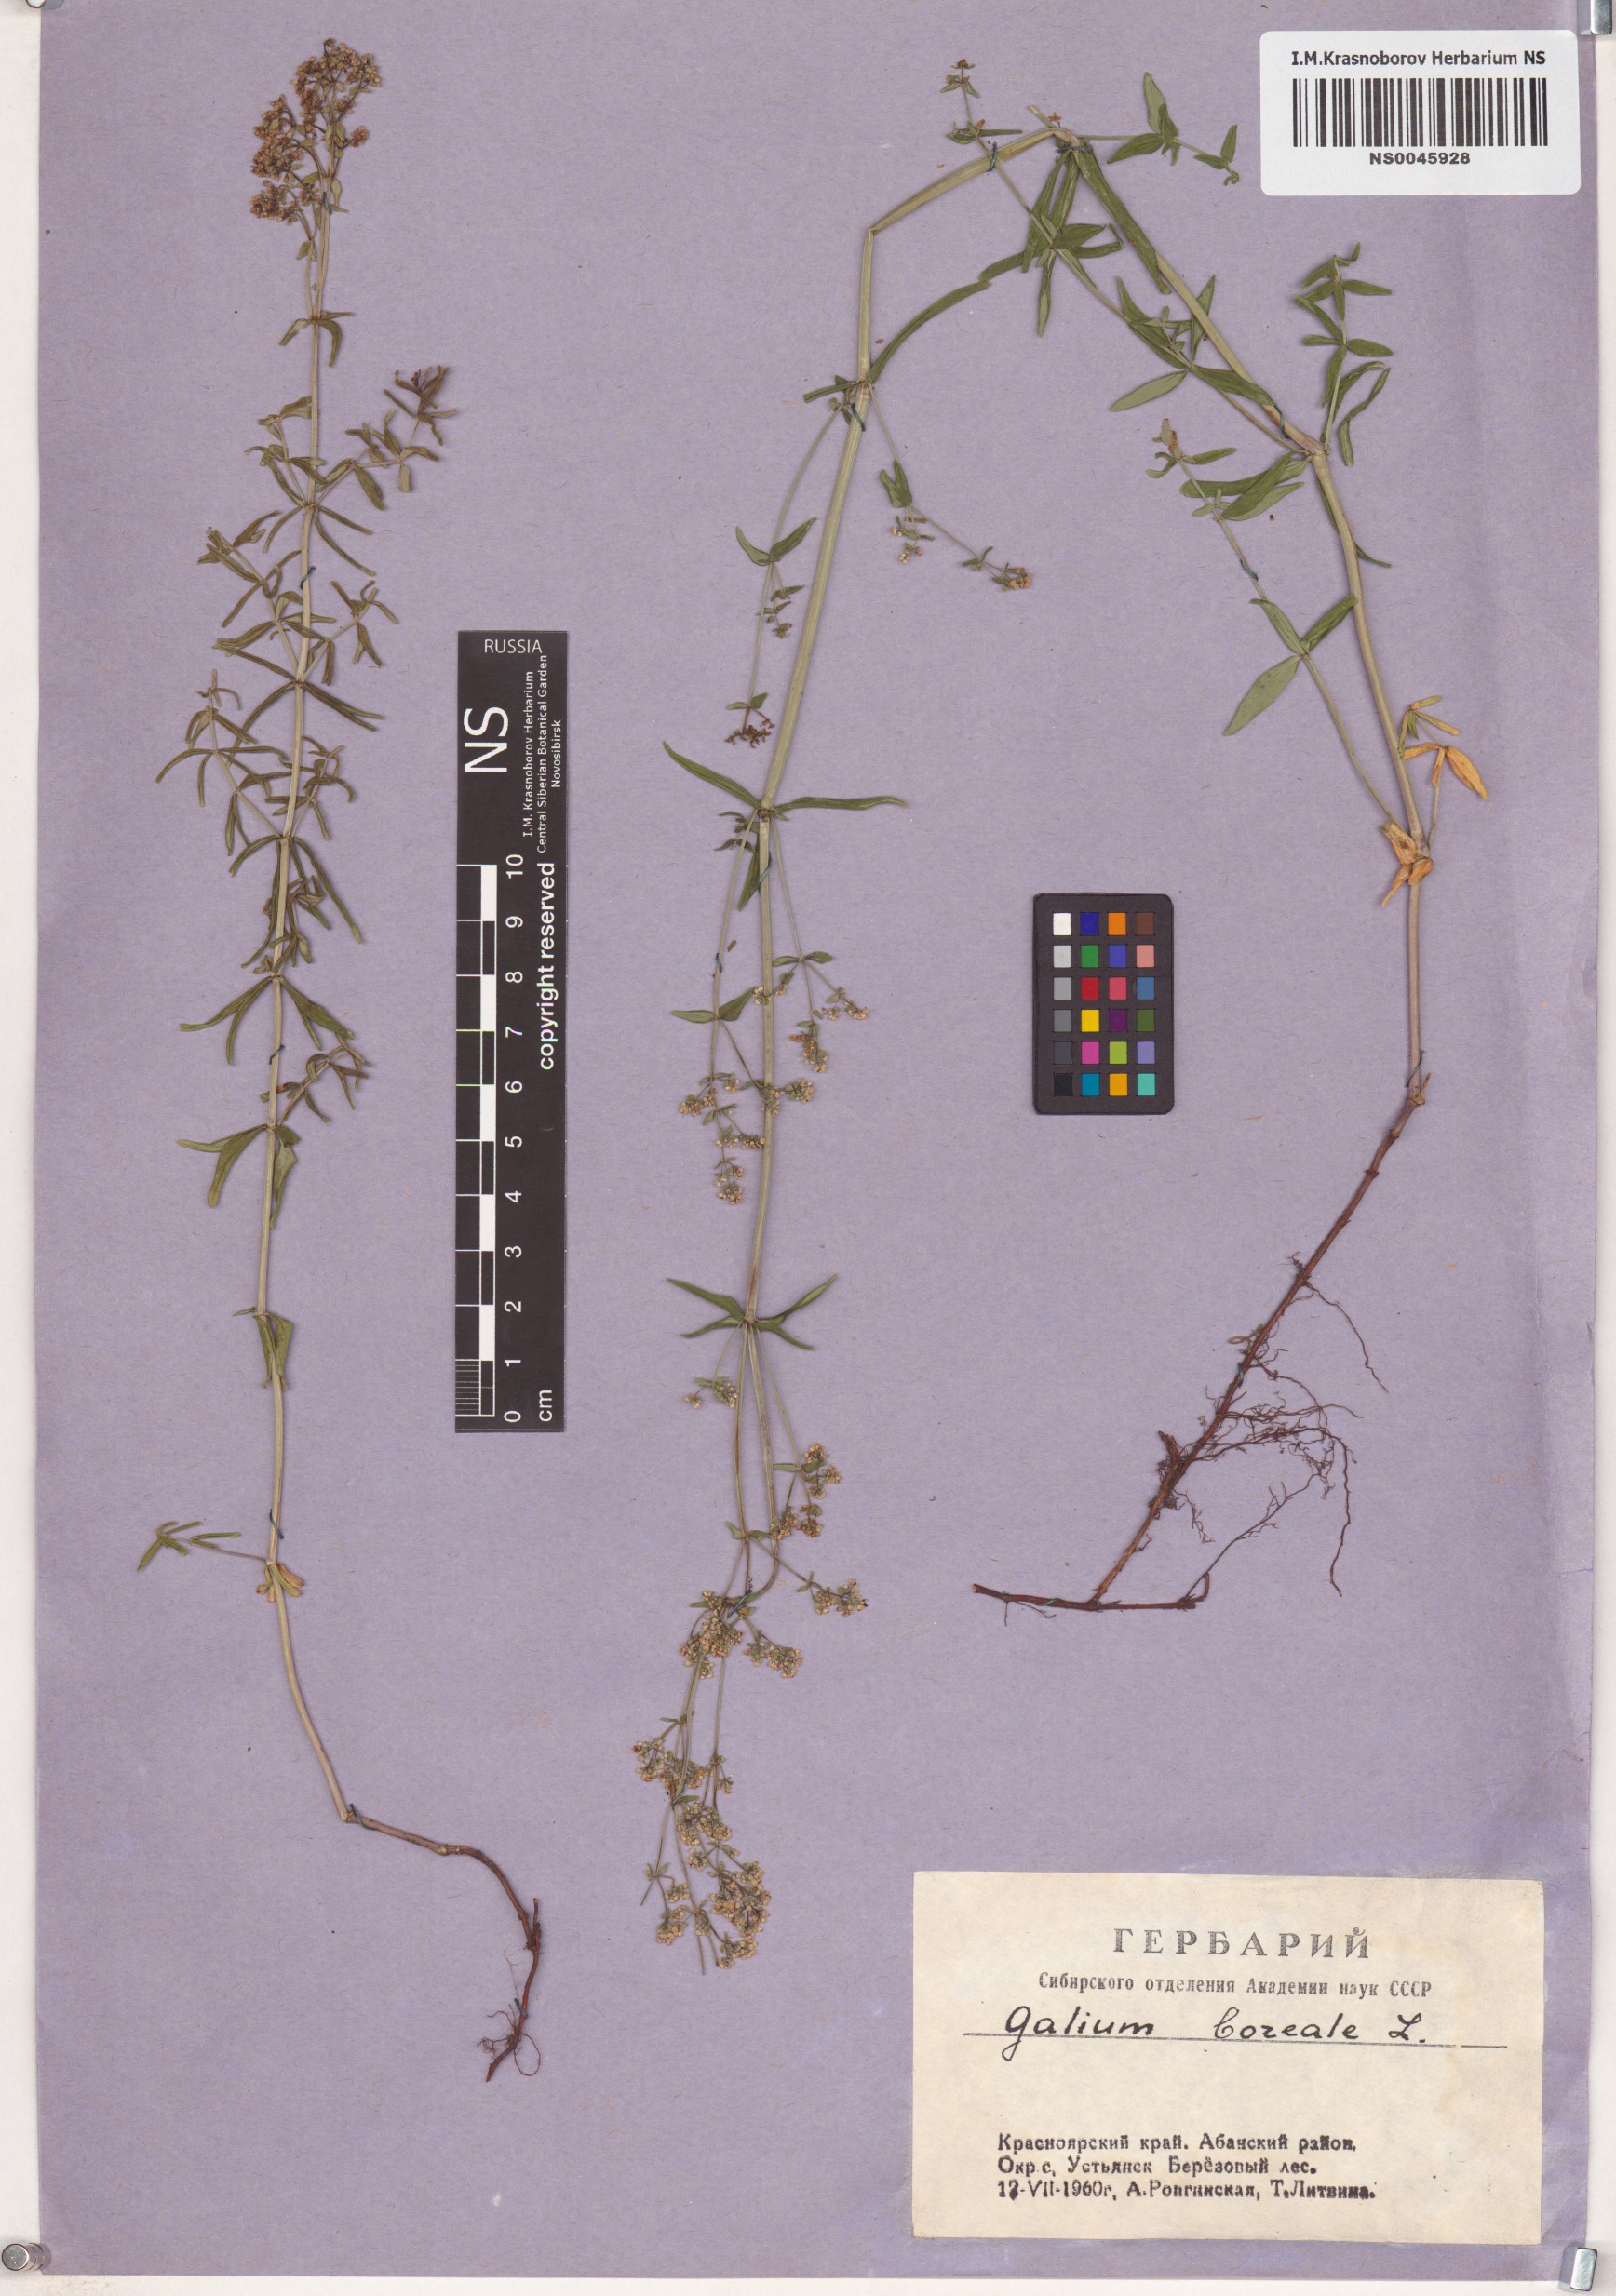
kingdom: Plantae
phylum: Tracheophyta
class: Magnoliopsida
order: Gentianales
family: Rubiaceae
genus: Galium
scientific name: Galium boreale
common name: Northern bedstraw
